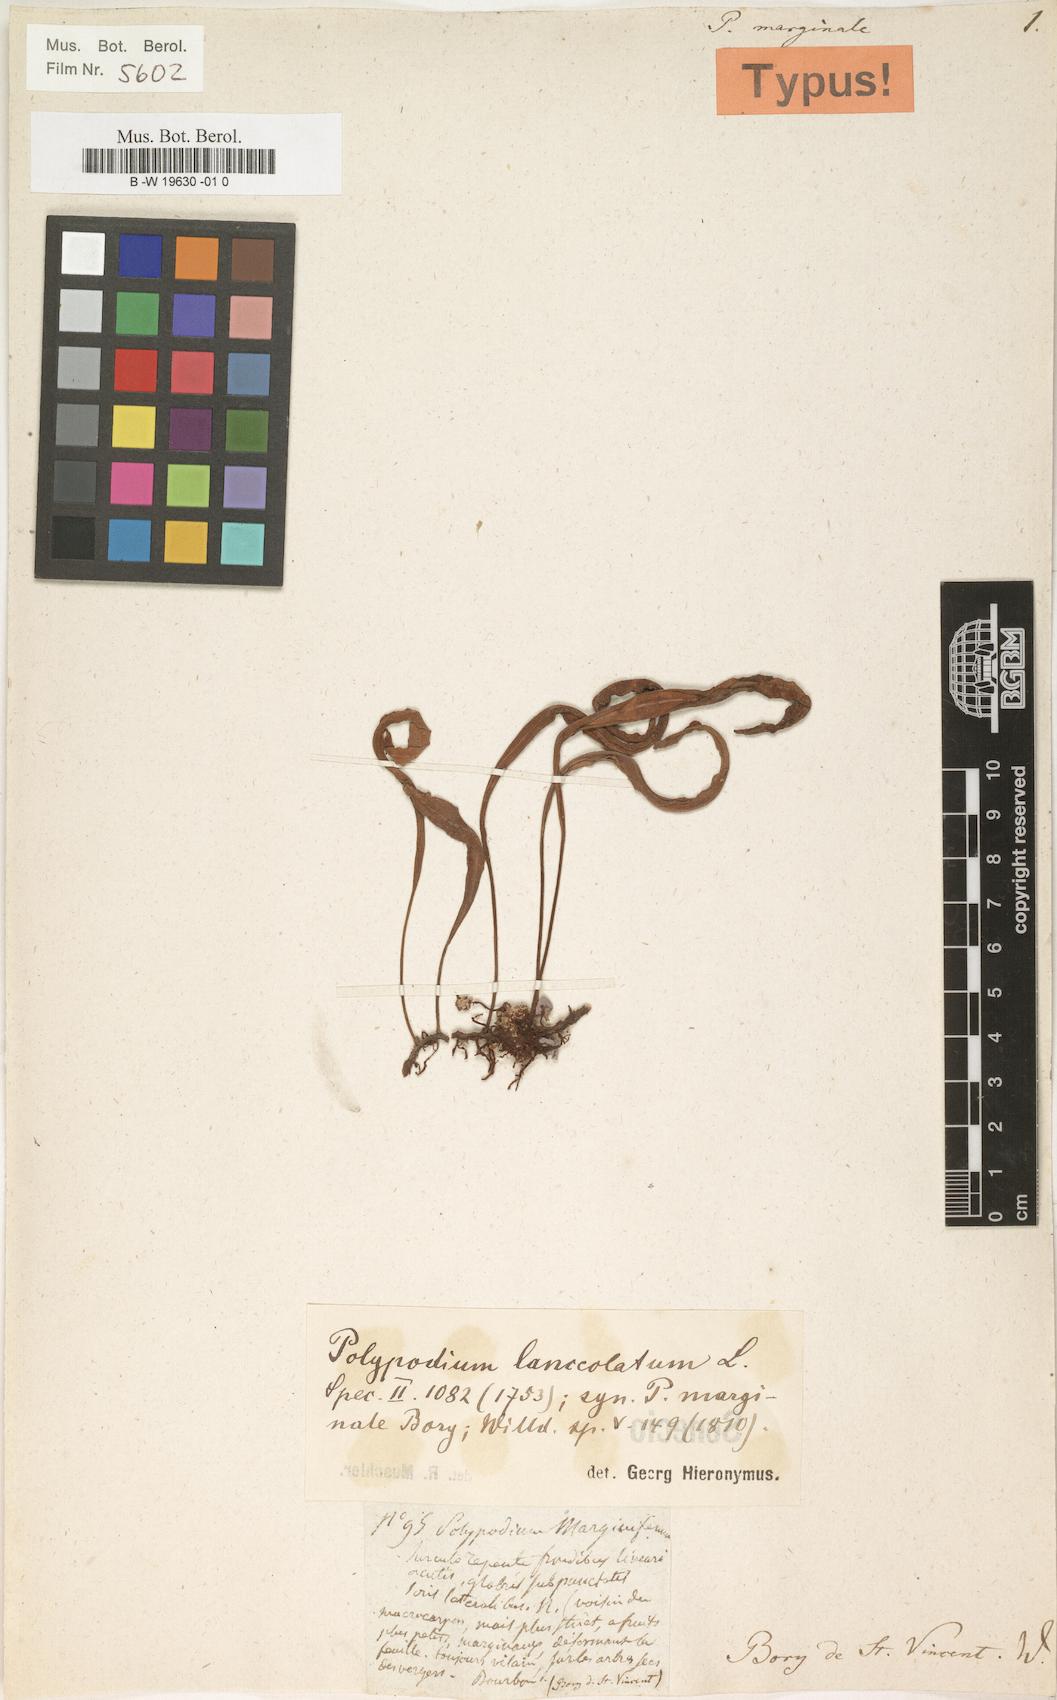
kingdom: Plantae
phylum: Tracheophyta
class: Polypodiopsida
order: Polypodiales
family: Polypodiaceae
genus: Pleopeltis
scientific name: Pleopeltis macrocarpa
